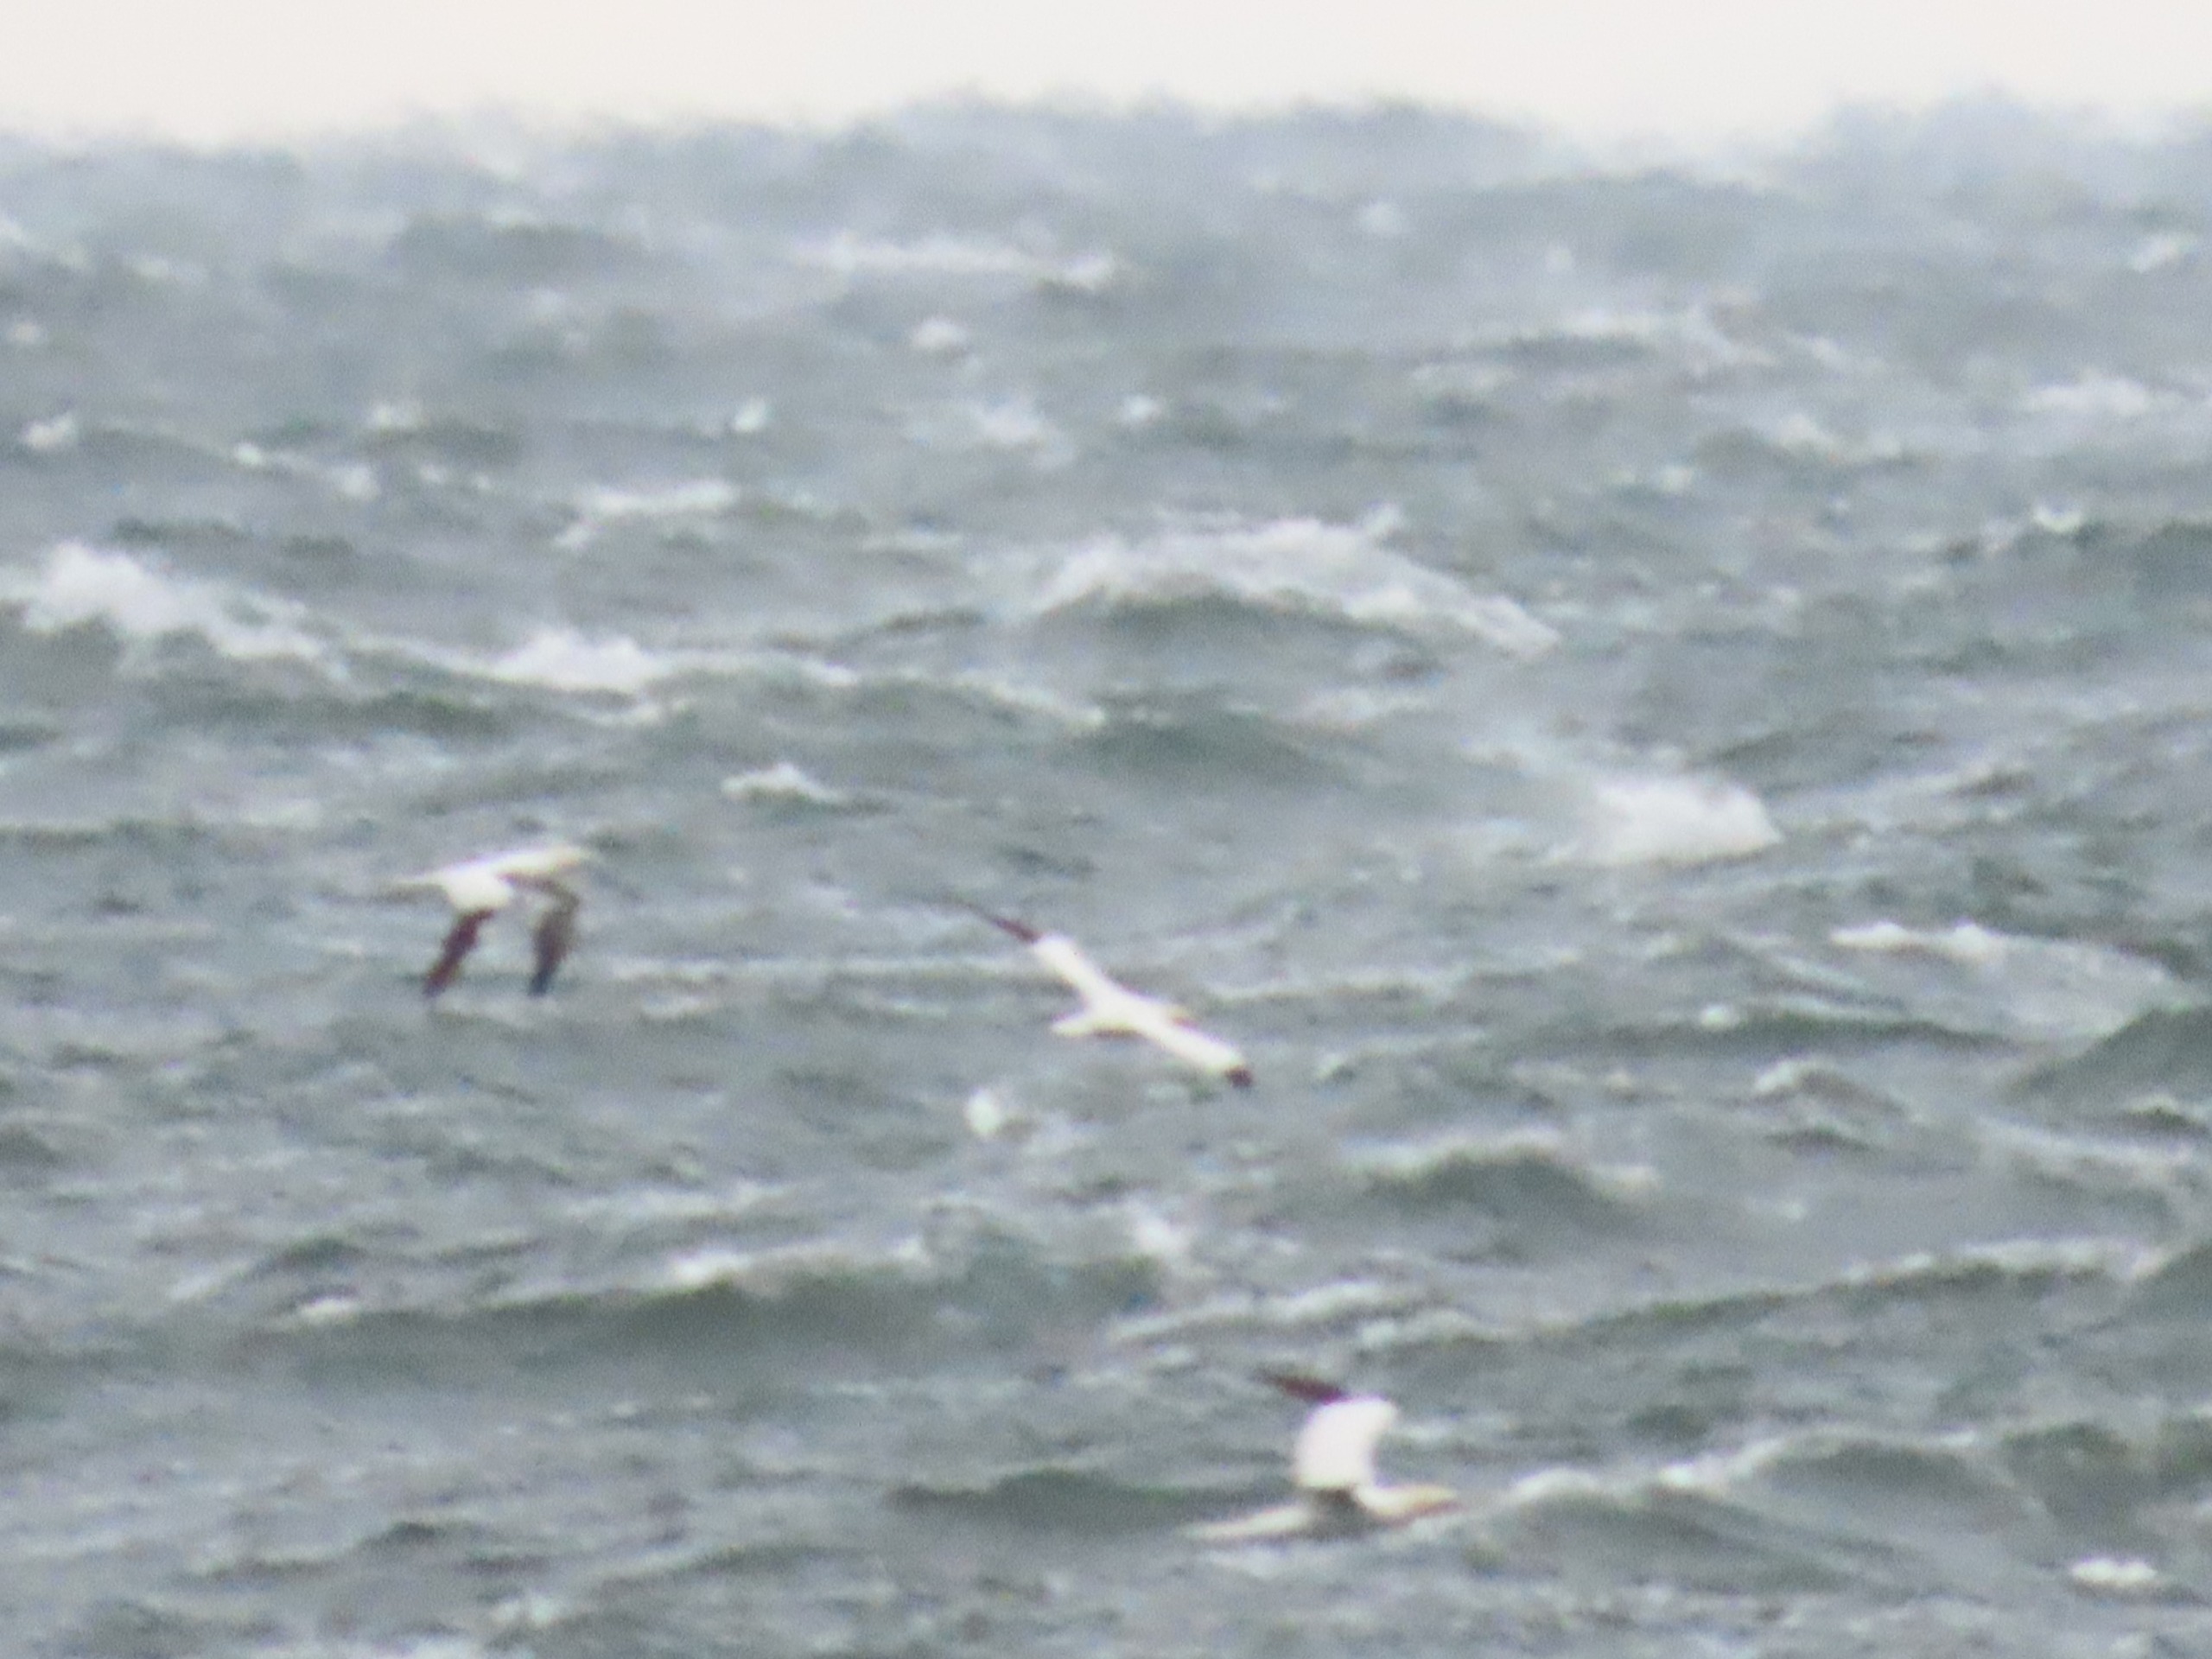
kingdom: Animalia
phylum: Chordata
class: Aves
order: Suliformes
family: Sulidae
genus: Morus
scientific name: Morus bassanus
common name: Sule
